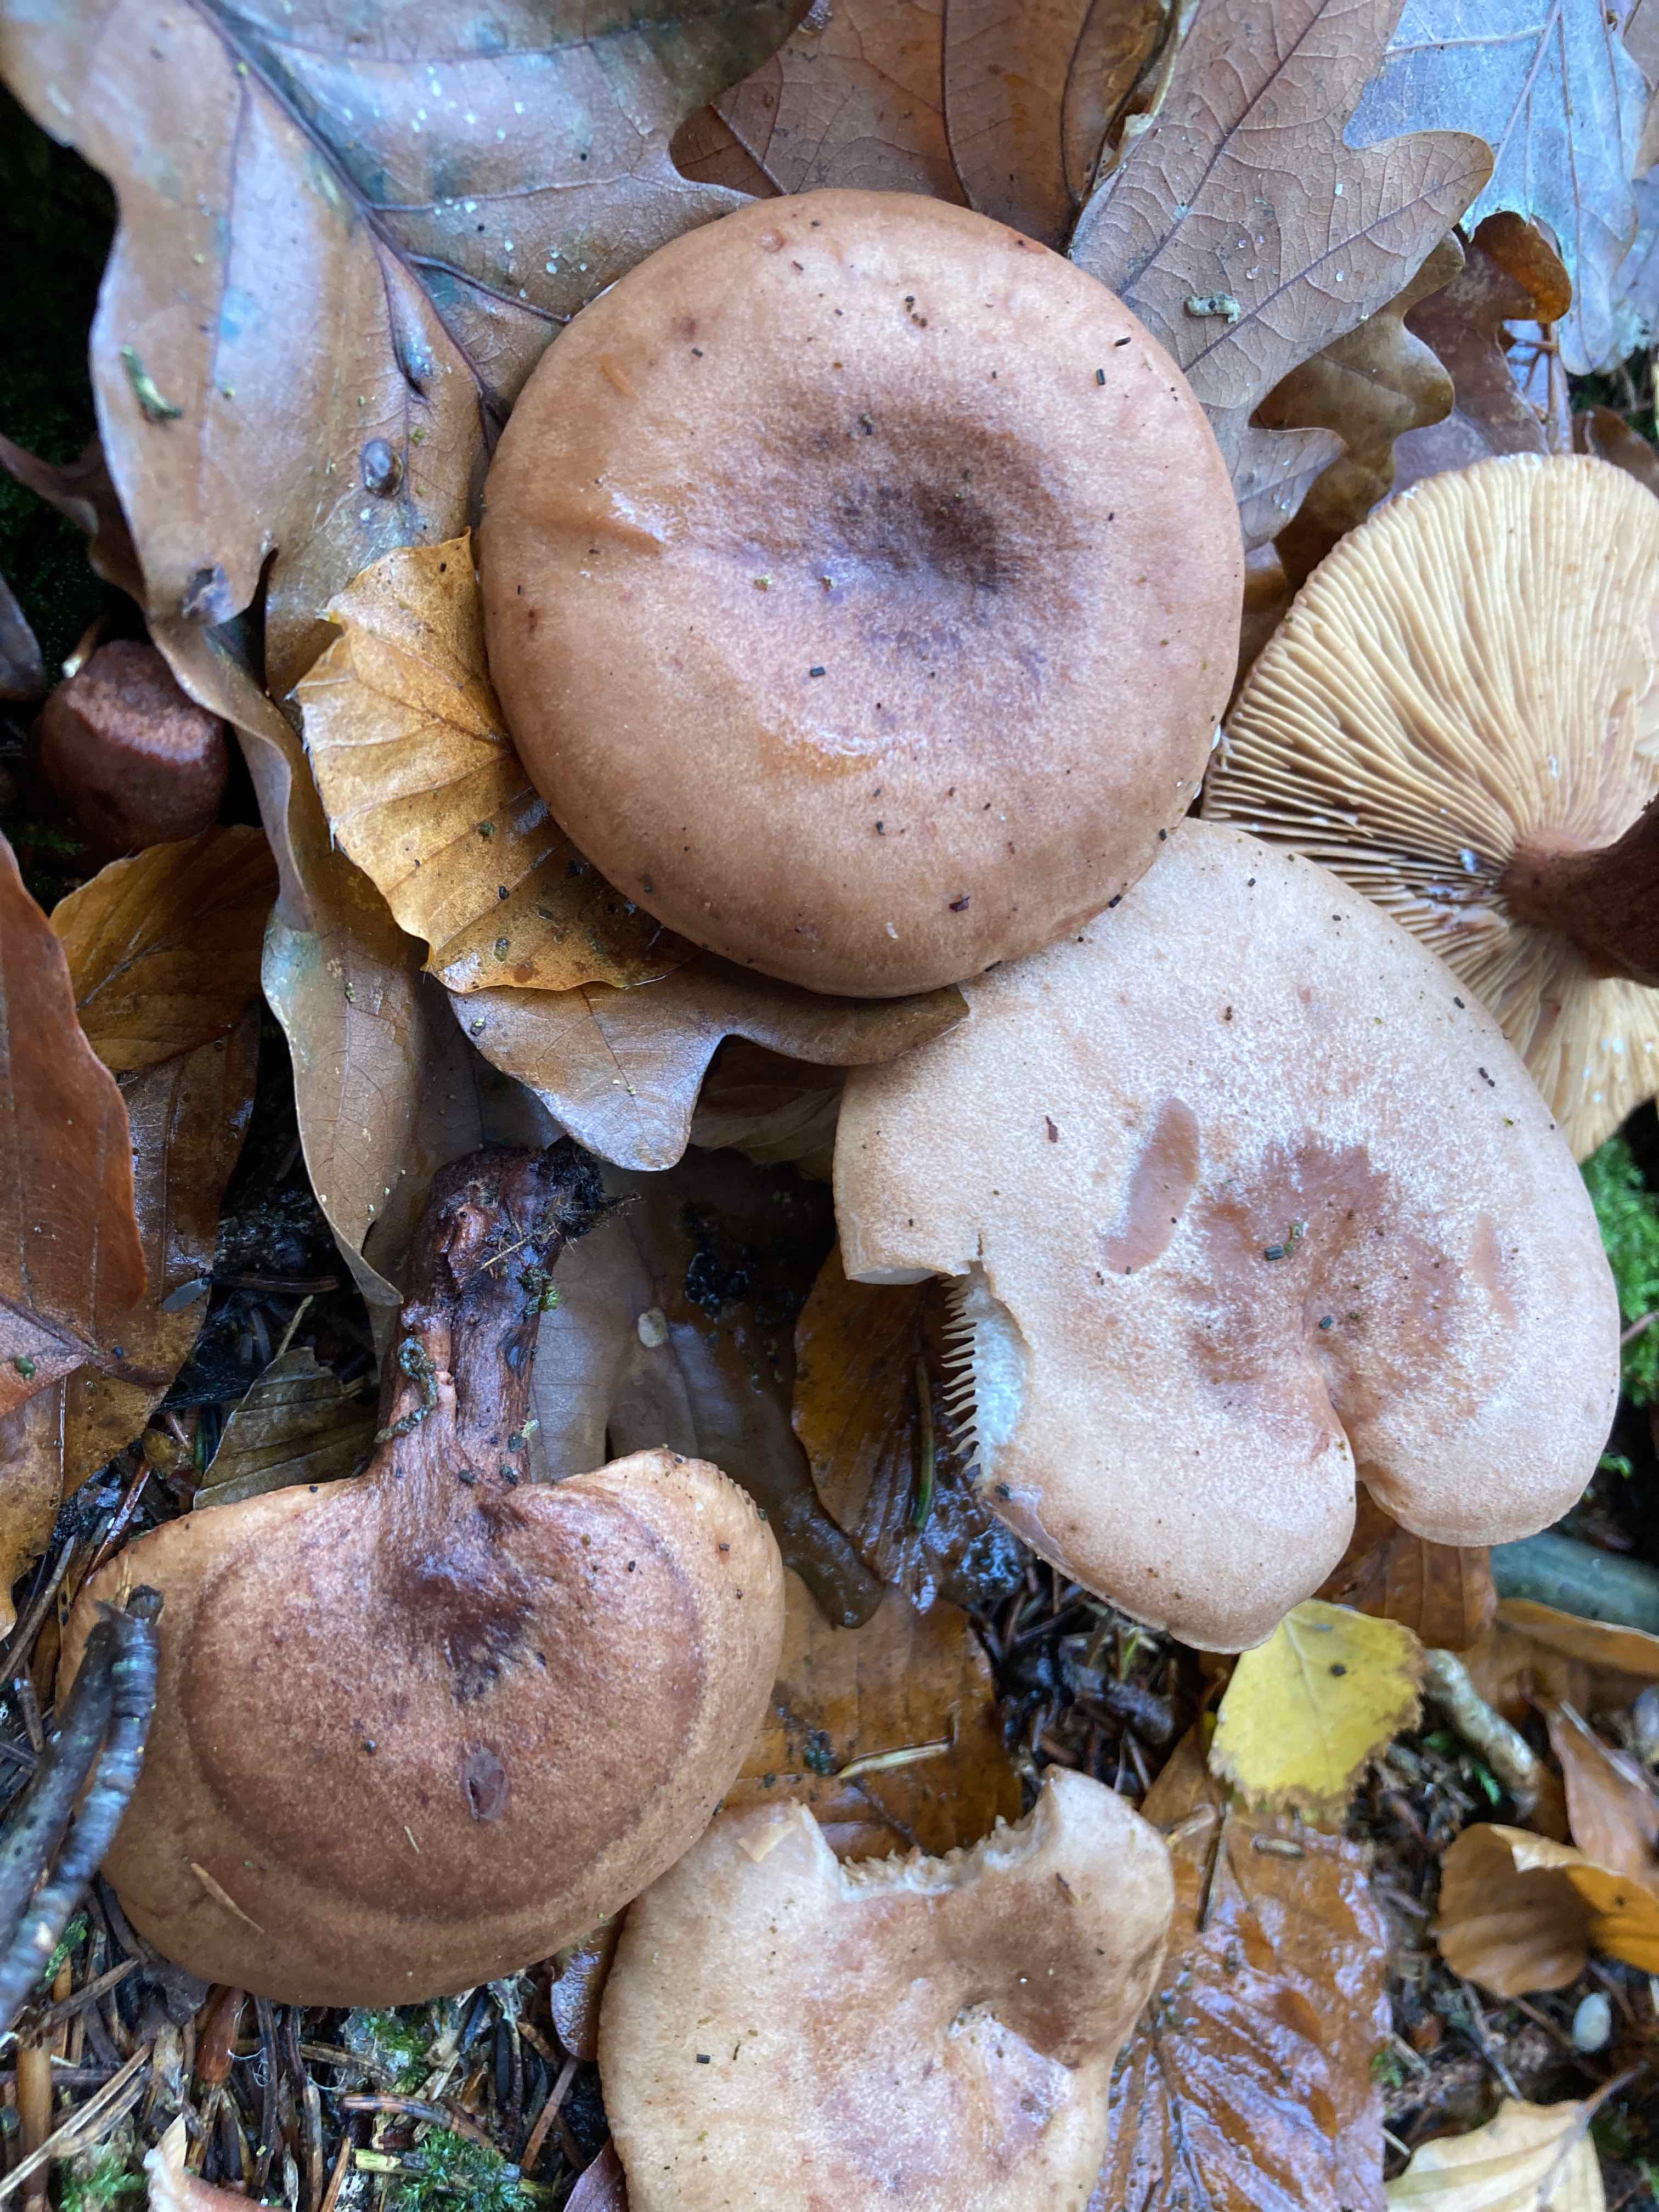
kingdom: Fungi
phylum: Basidiomycota
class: Agaricomycetes
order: Russulales
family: Russulaceae
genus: Lactarius
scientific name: Lactarius quietus
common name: ege-mælkehat
